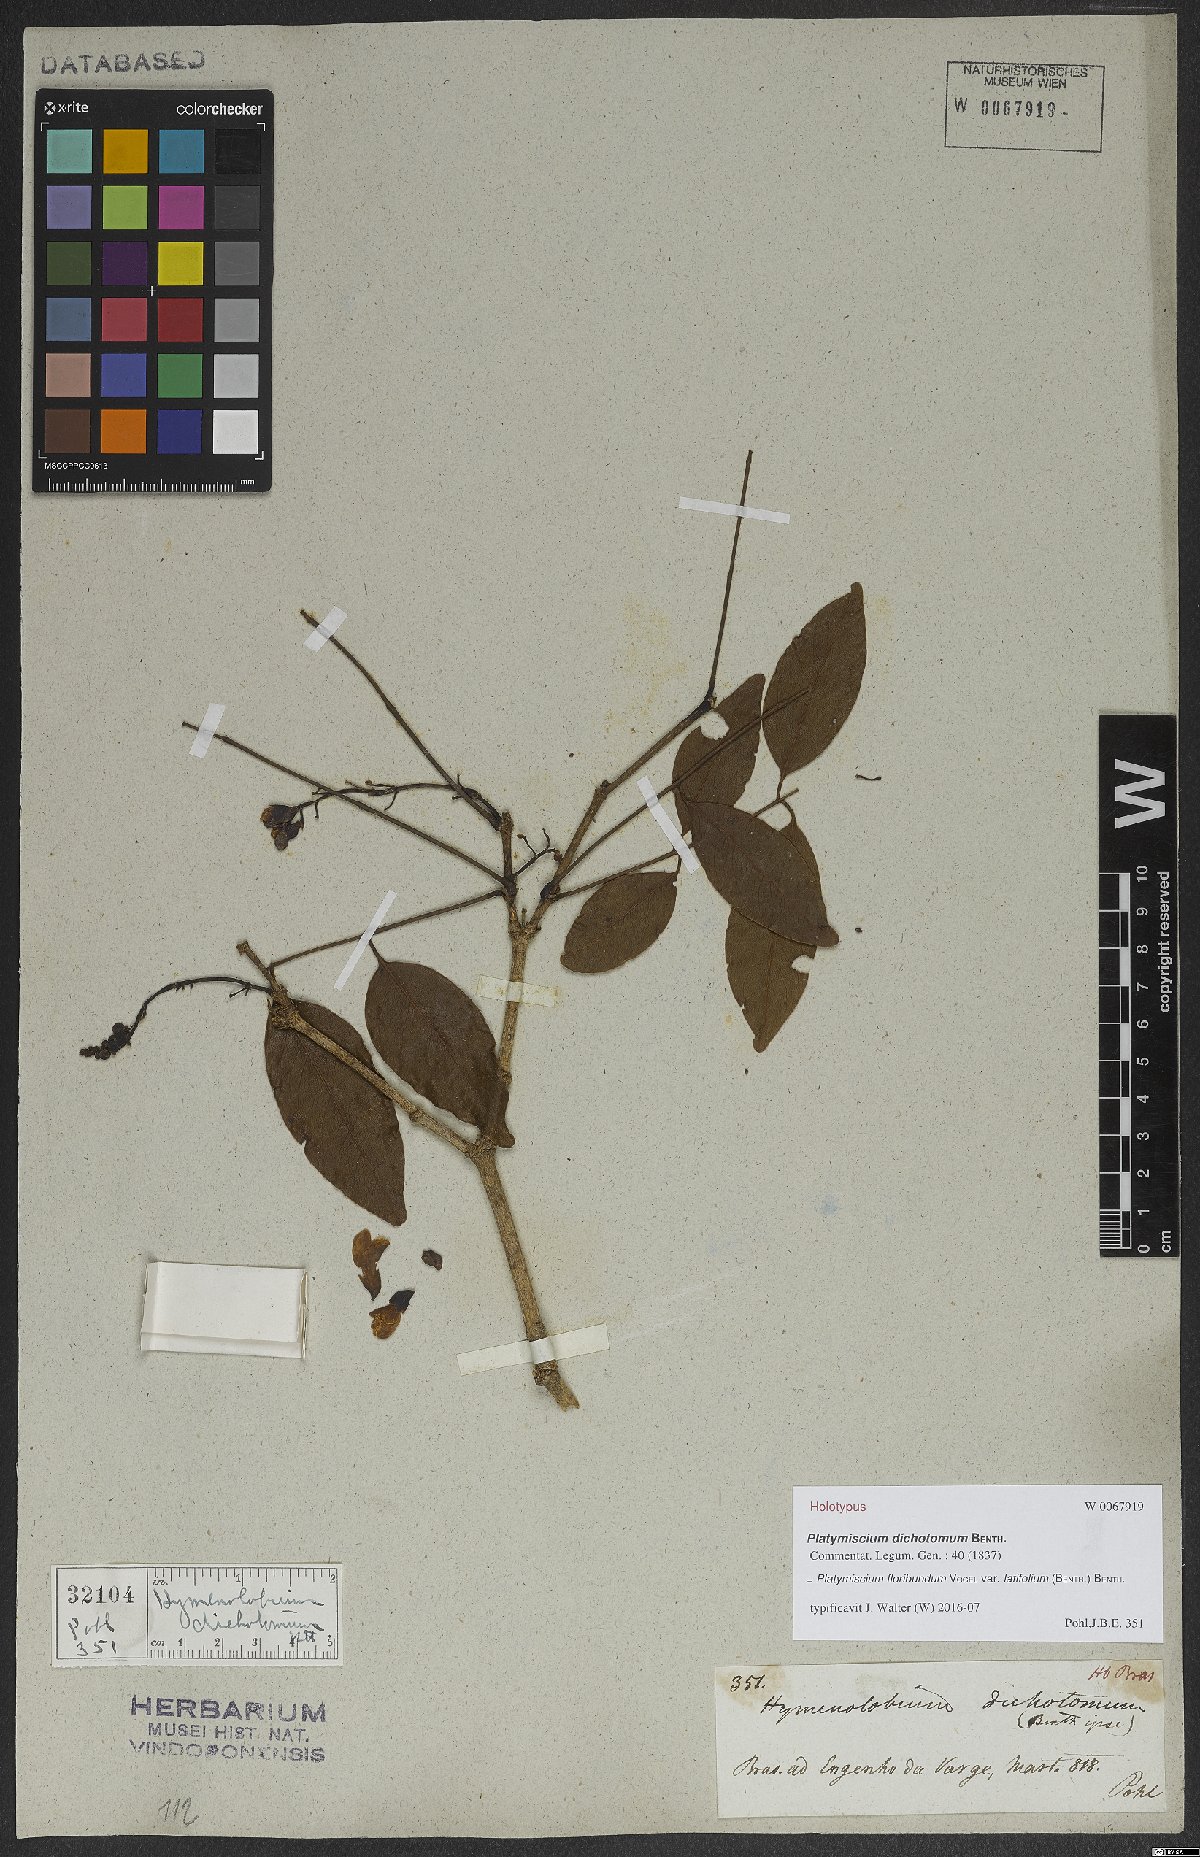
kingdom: Plantae
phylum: Tracheophyta
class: Magnoliopsida
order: Fabales
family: Fabaceae
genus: Platymiscium
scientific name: Platymiscium floribundum
